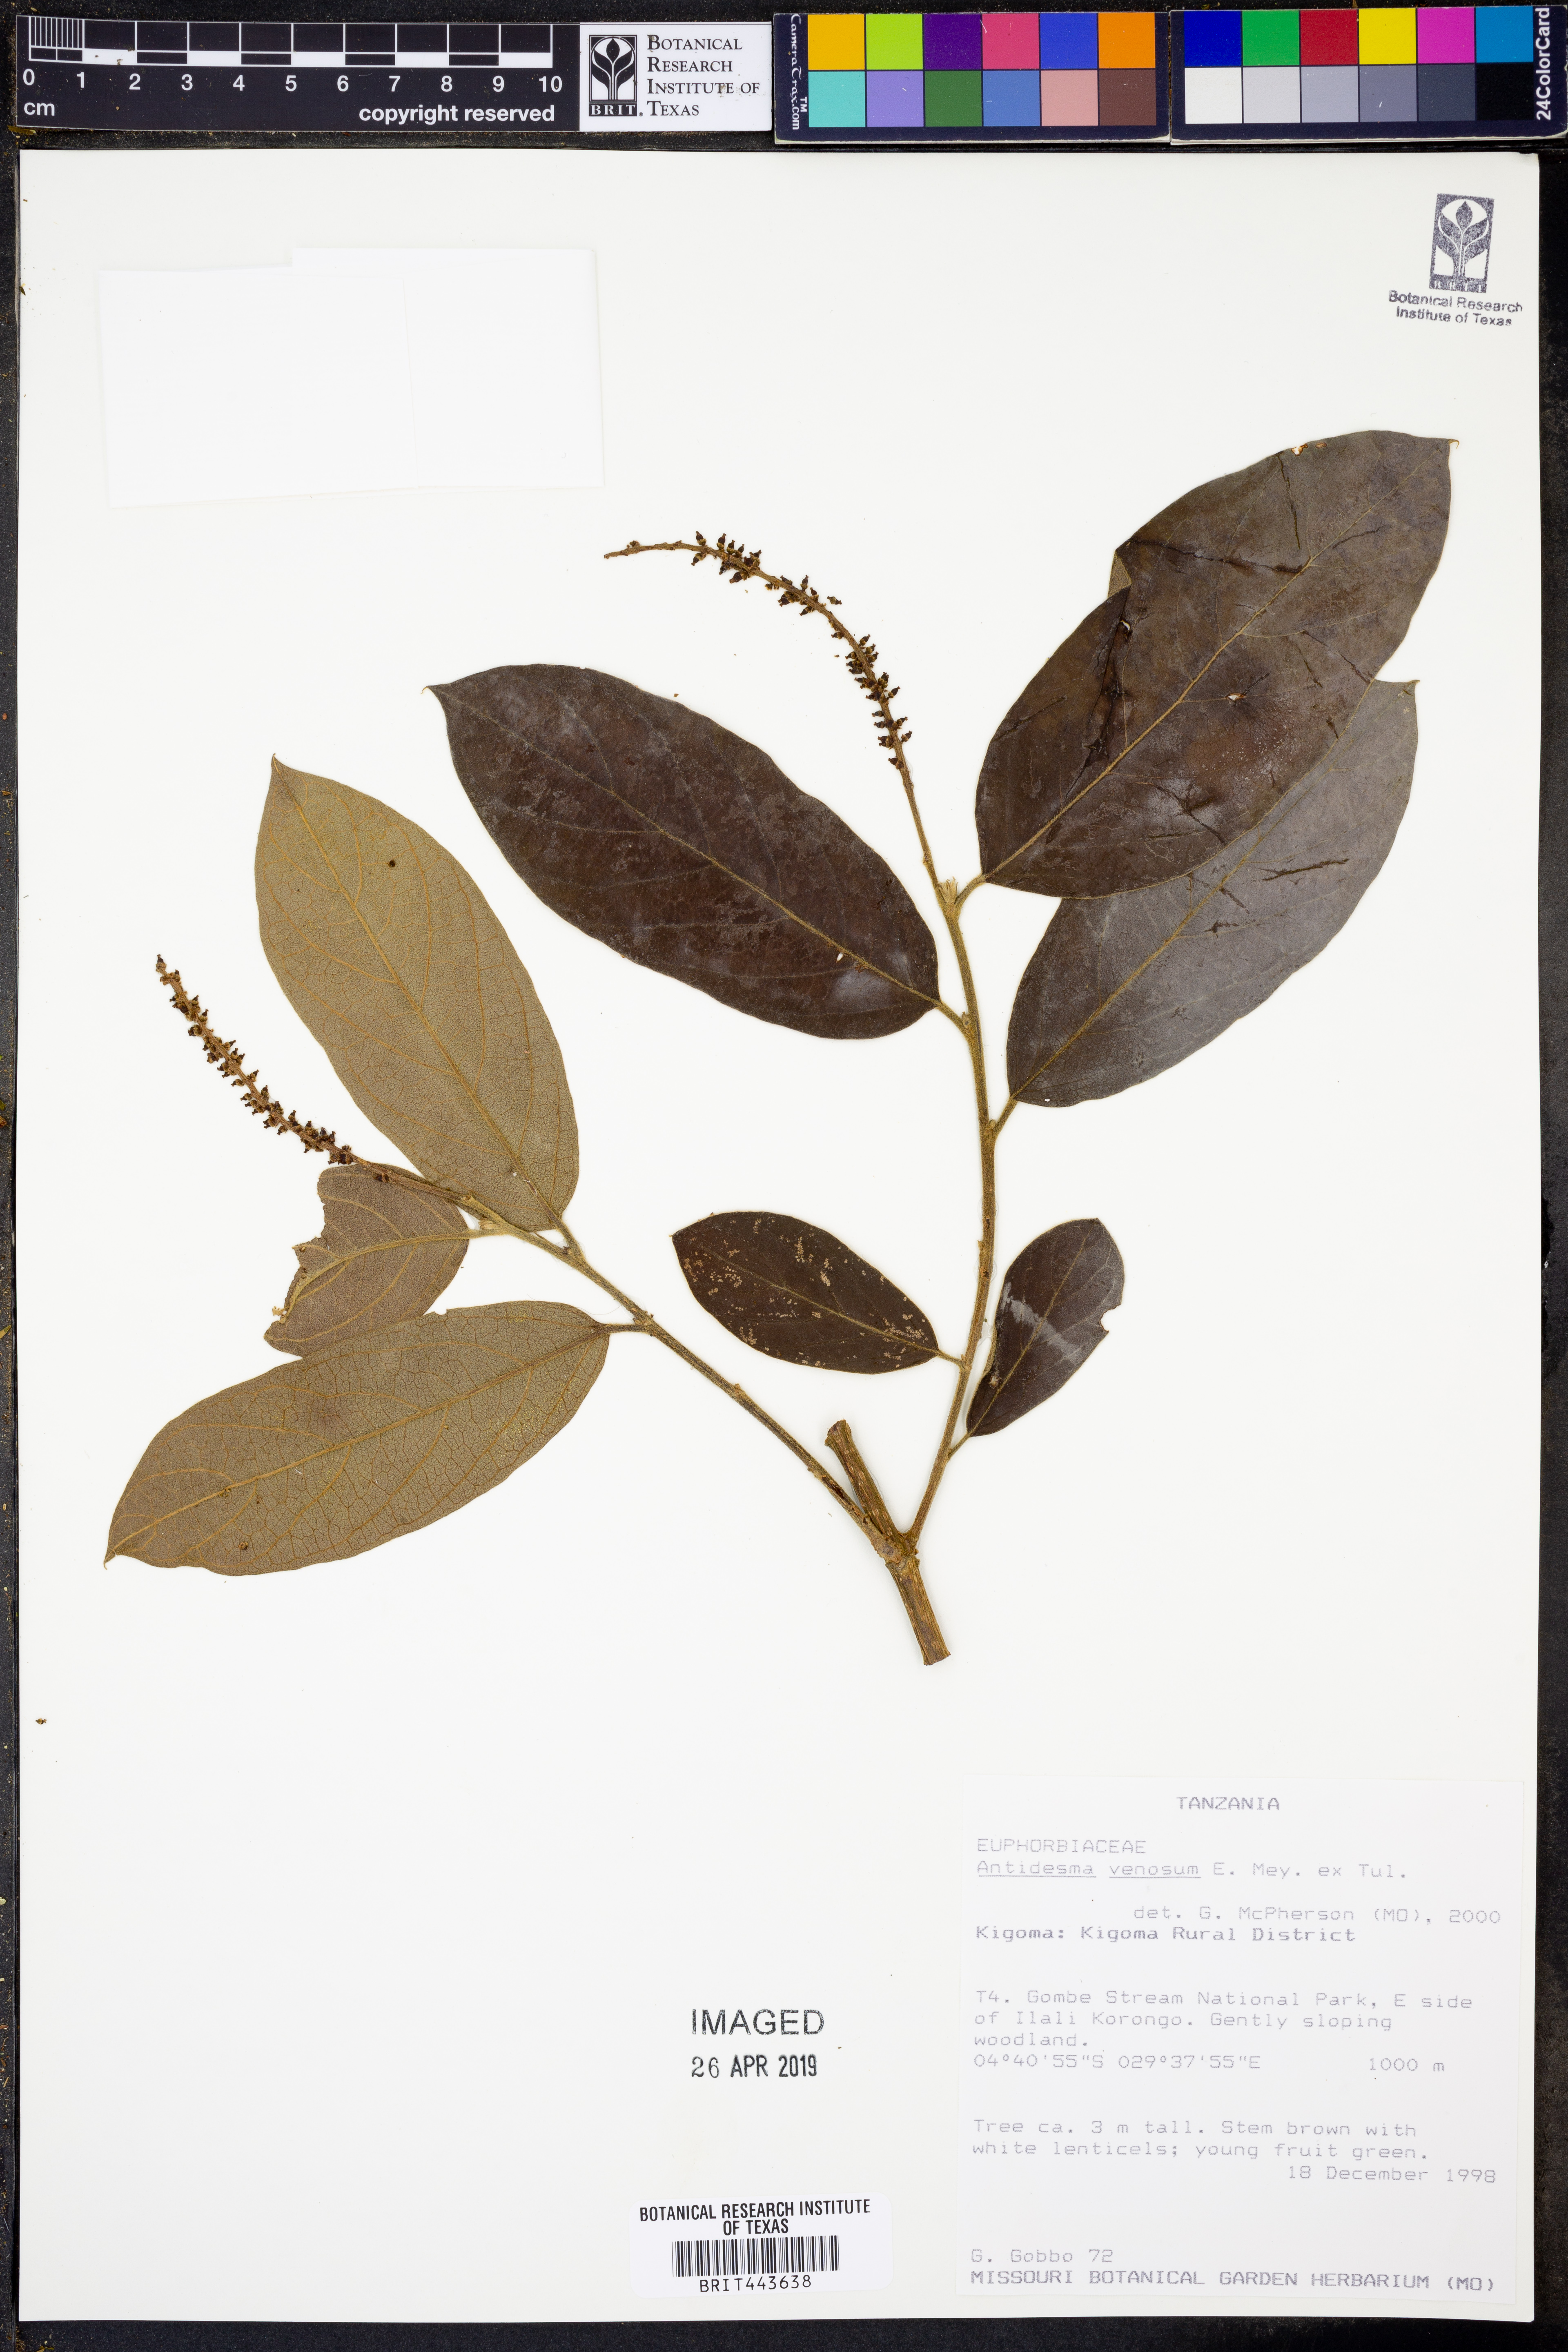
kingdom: Plantae
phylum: Tracheophyta
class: Magnoliopsida
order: Malpighiales
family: Phyllanthaceae
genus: Antidesma
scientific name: Antidesma venosum
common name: Tassel-berry
